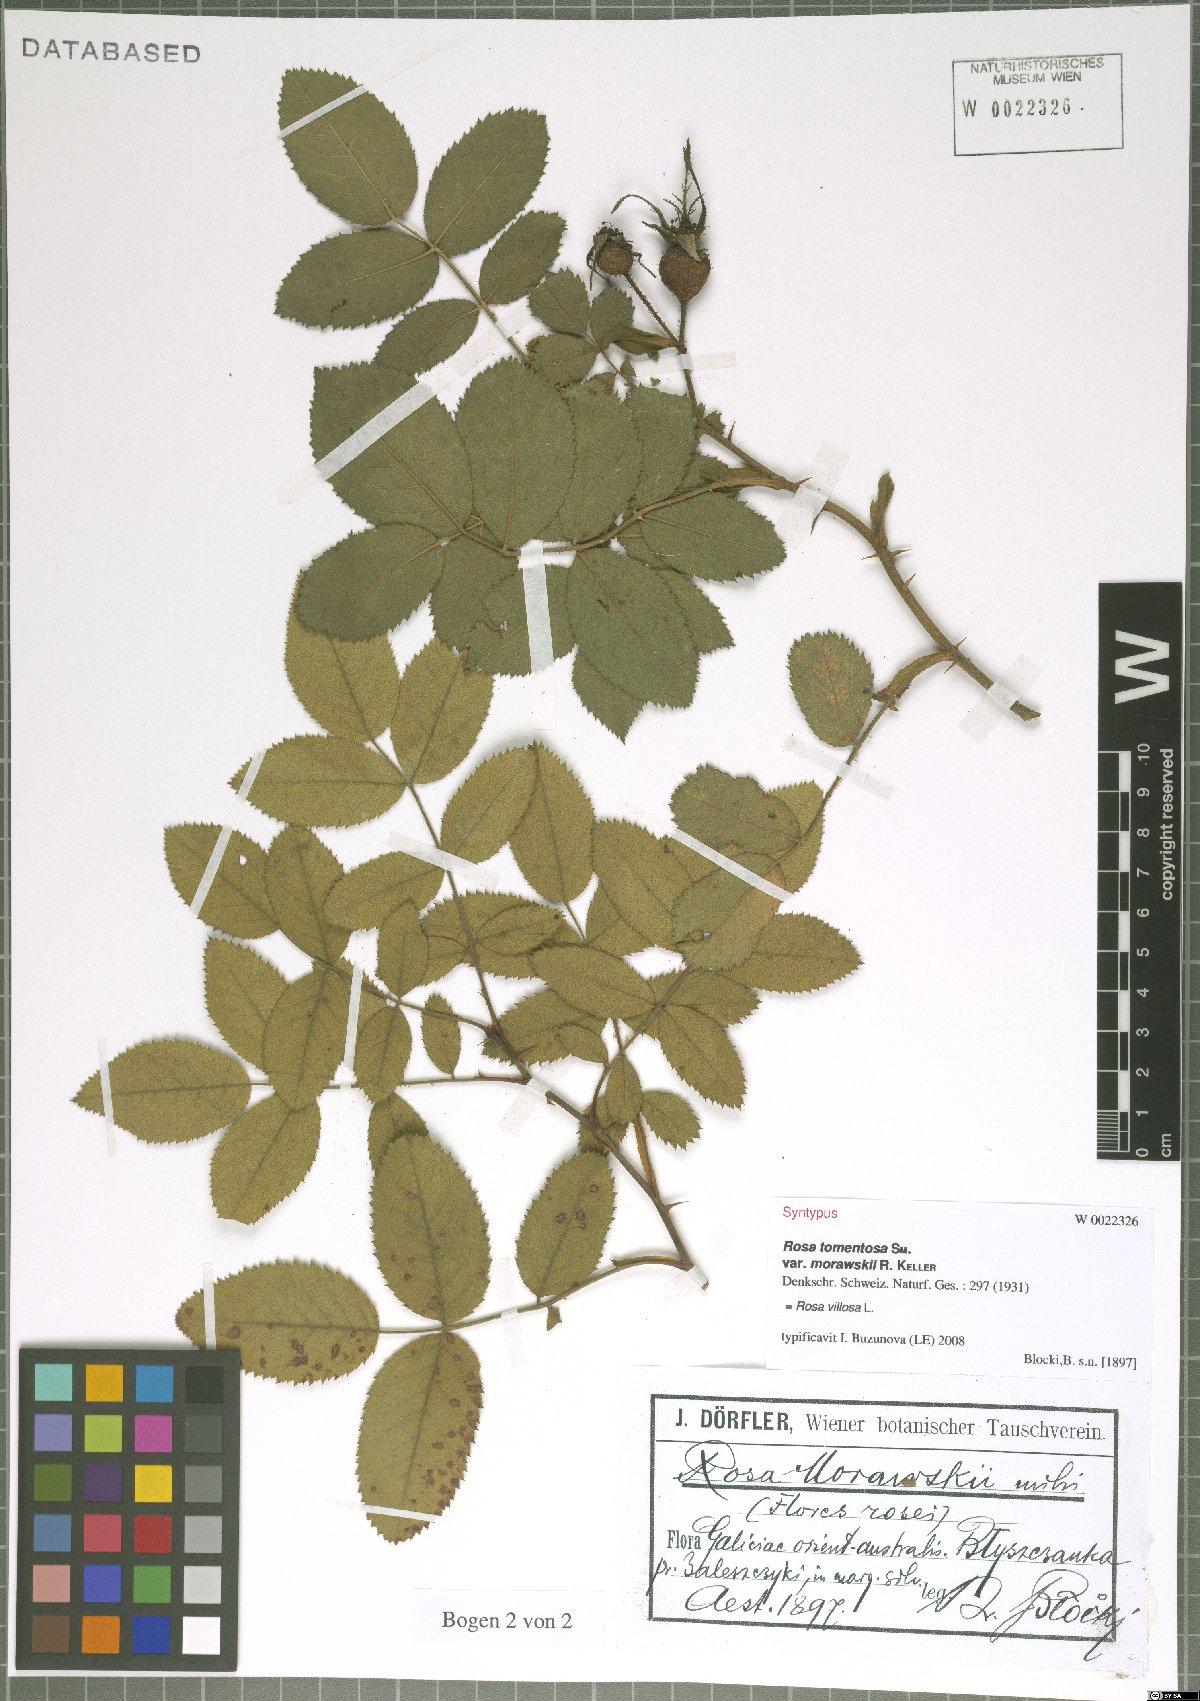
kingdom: Plantae
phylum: Tracheophyta
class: Magnoliopsida
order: Rosales
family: Rosaceae
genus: Rosa
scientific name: Rosa villosa
